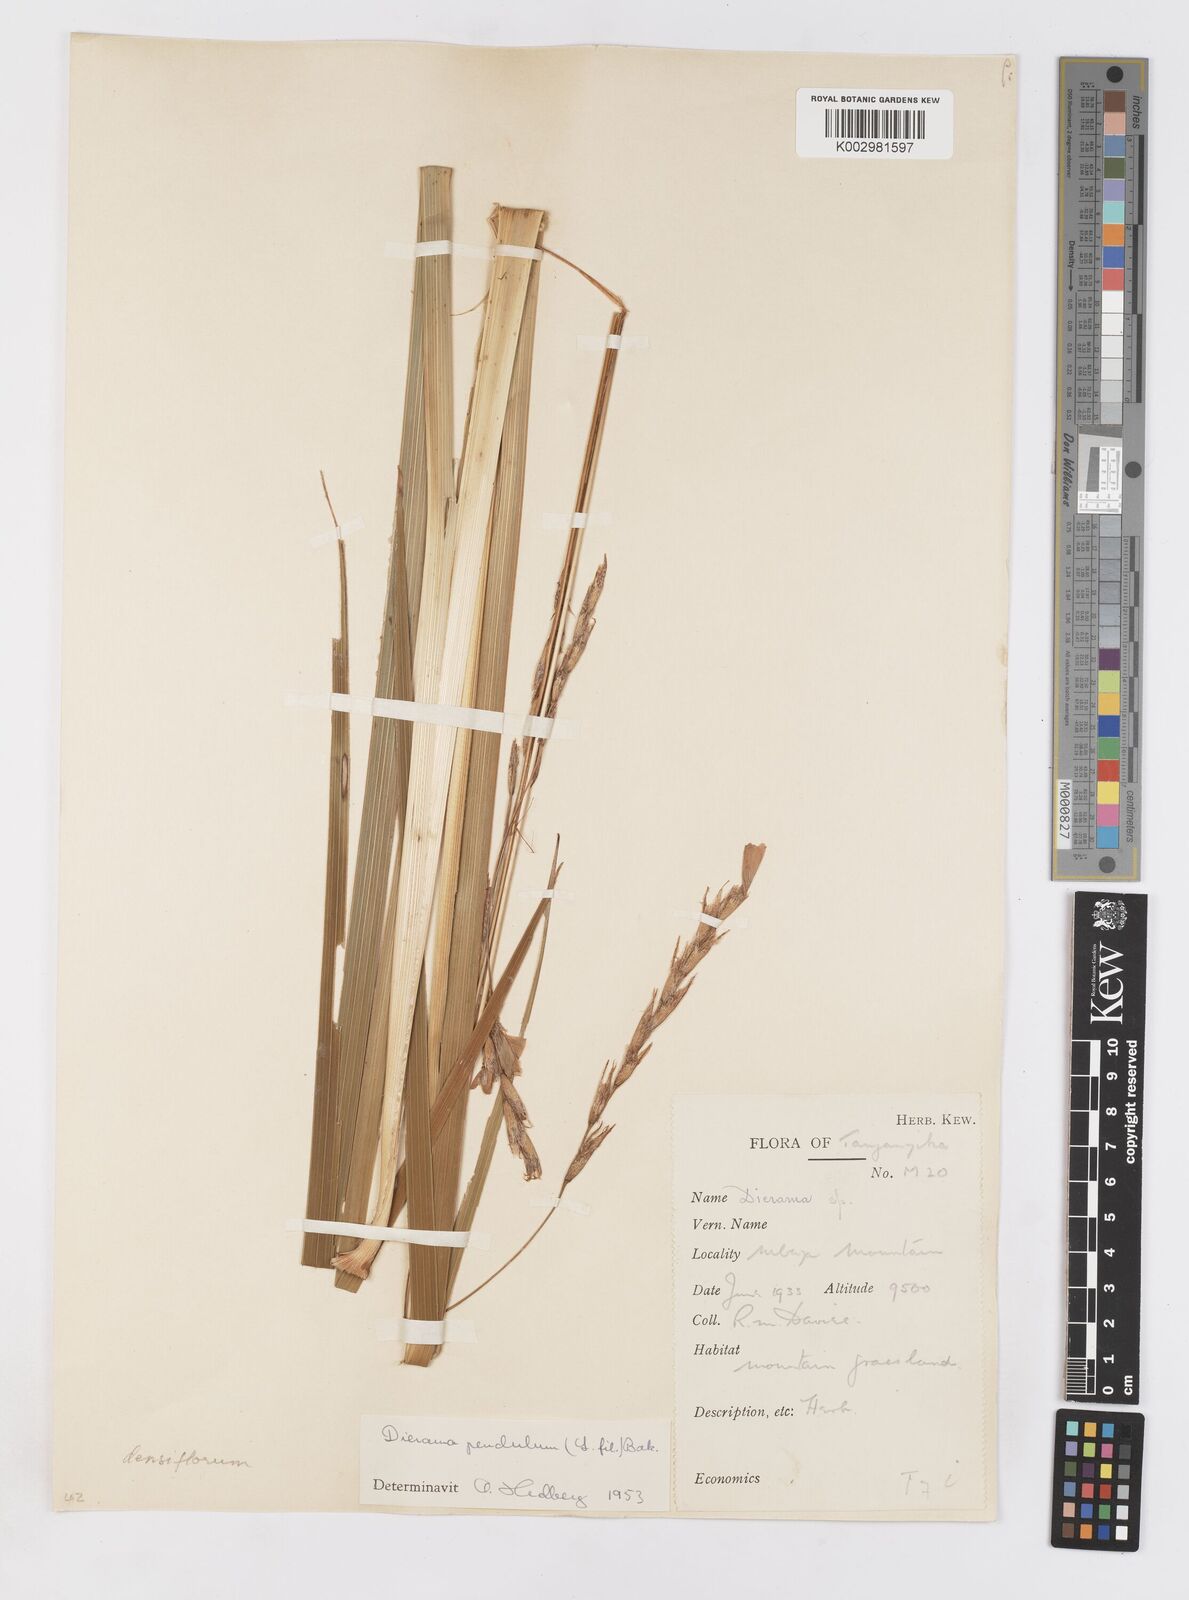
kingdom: Plantae
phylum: Tracheophyta
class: Liliopsida
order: Asparagales
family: Iridaceae
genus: Dierama
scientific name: Dierama densiflorum
